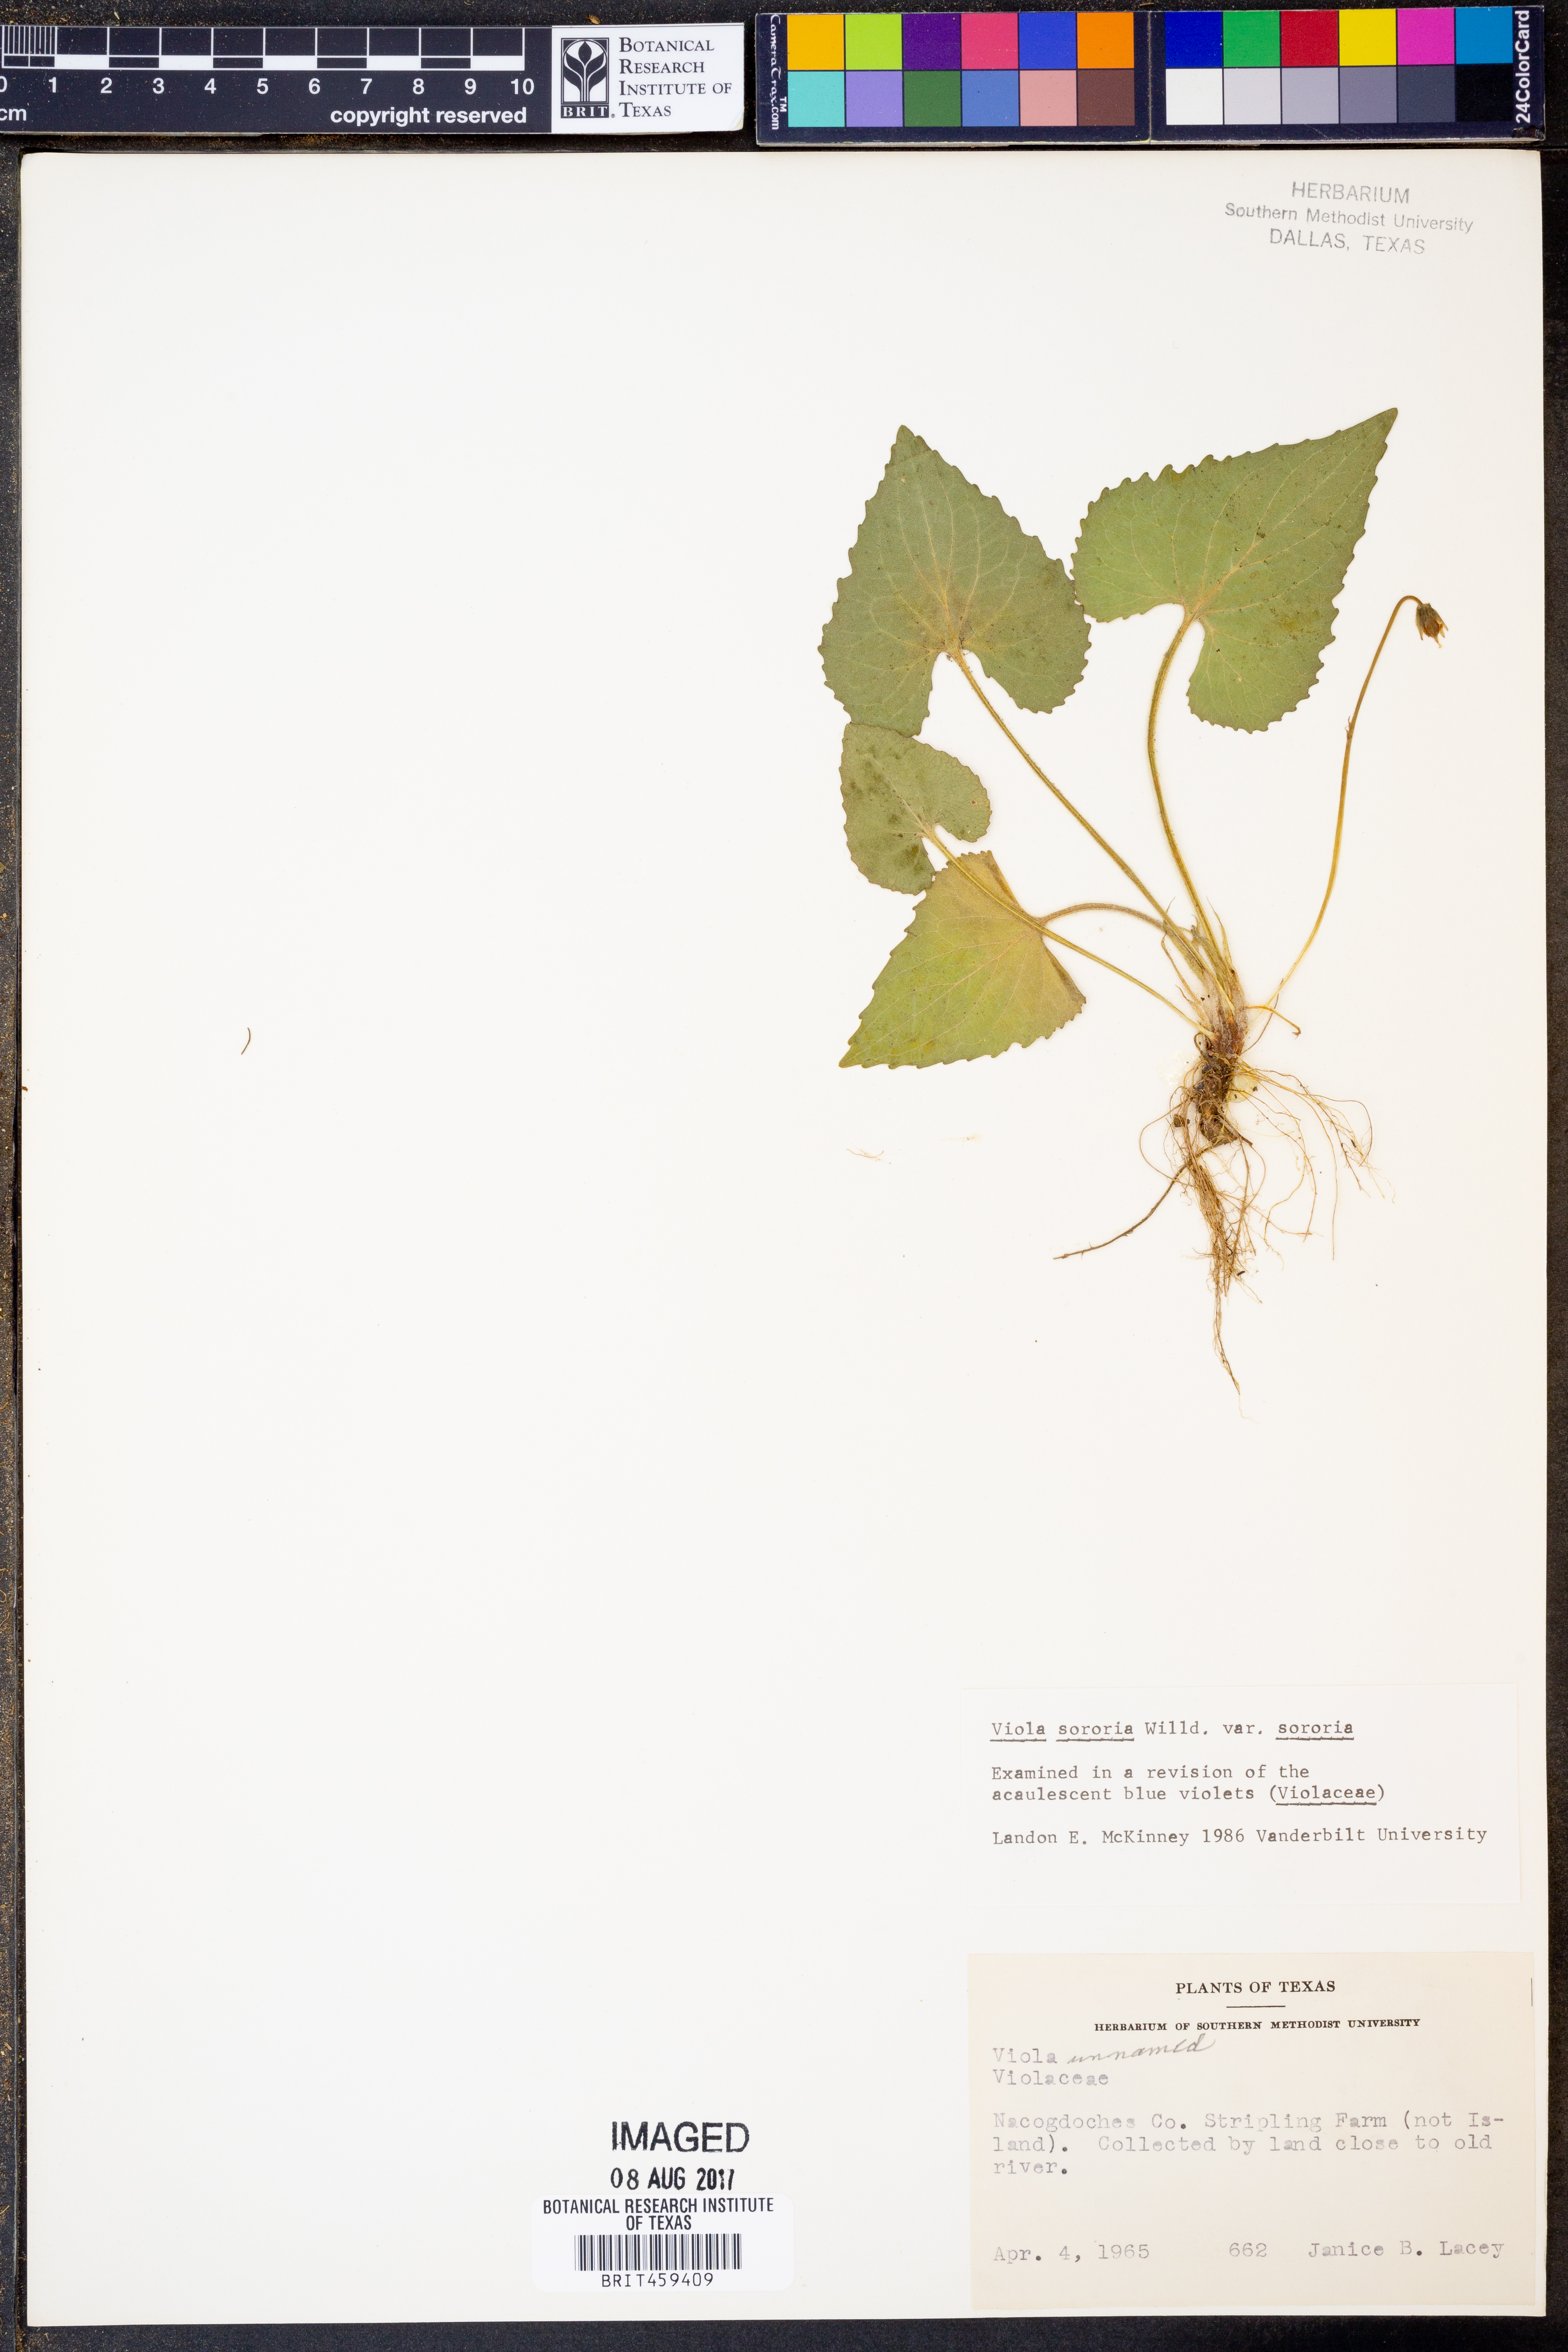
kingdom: Plantae
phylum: Tracheophyta
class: Magnoliopsida
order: Malpighiales
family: Violaceae
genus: Viola
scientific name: Viola sororia
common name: Dooryard violet
